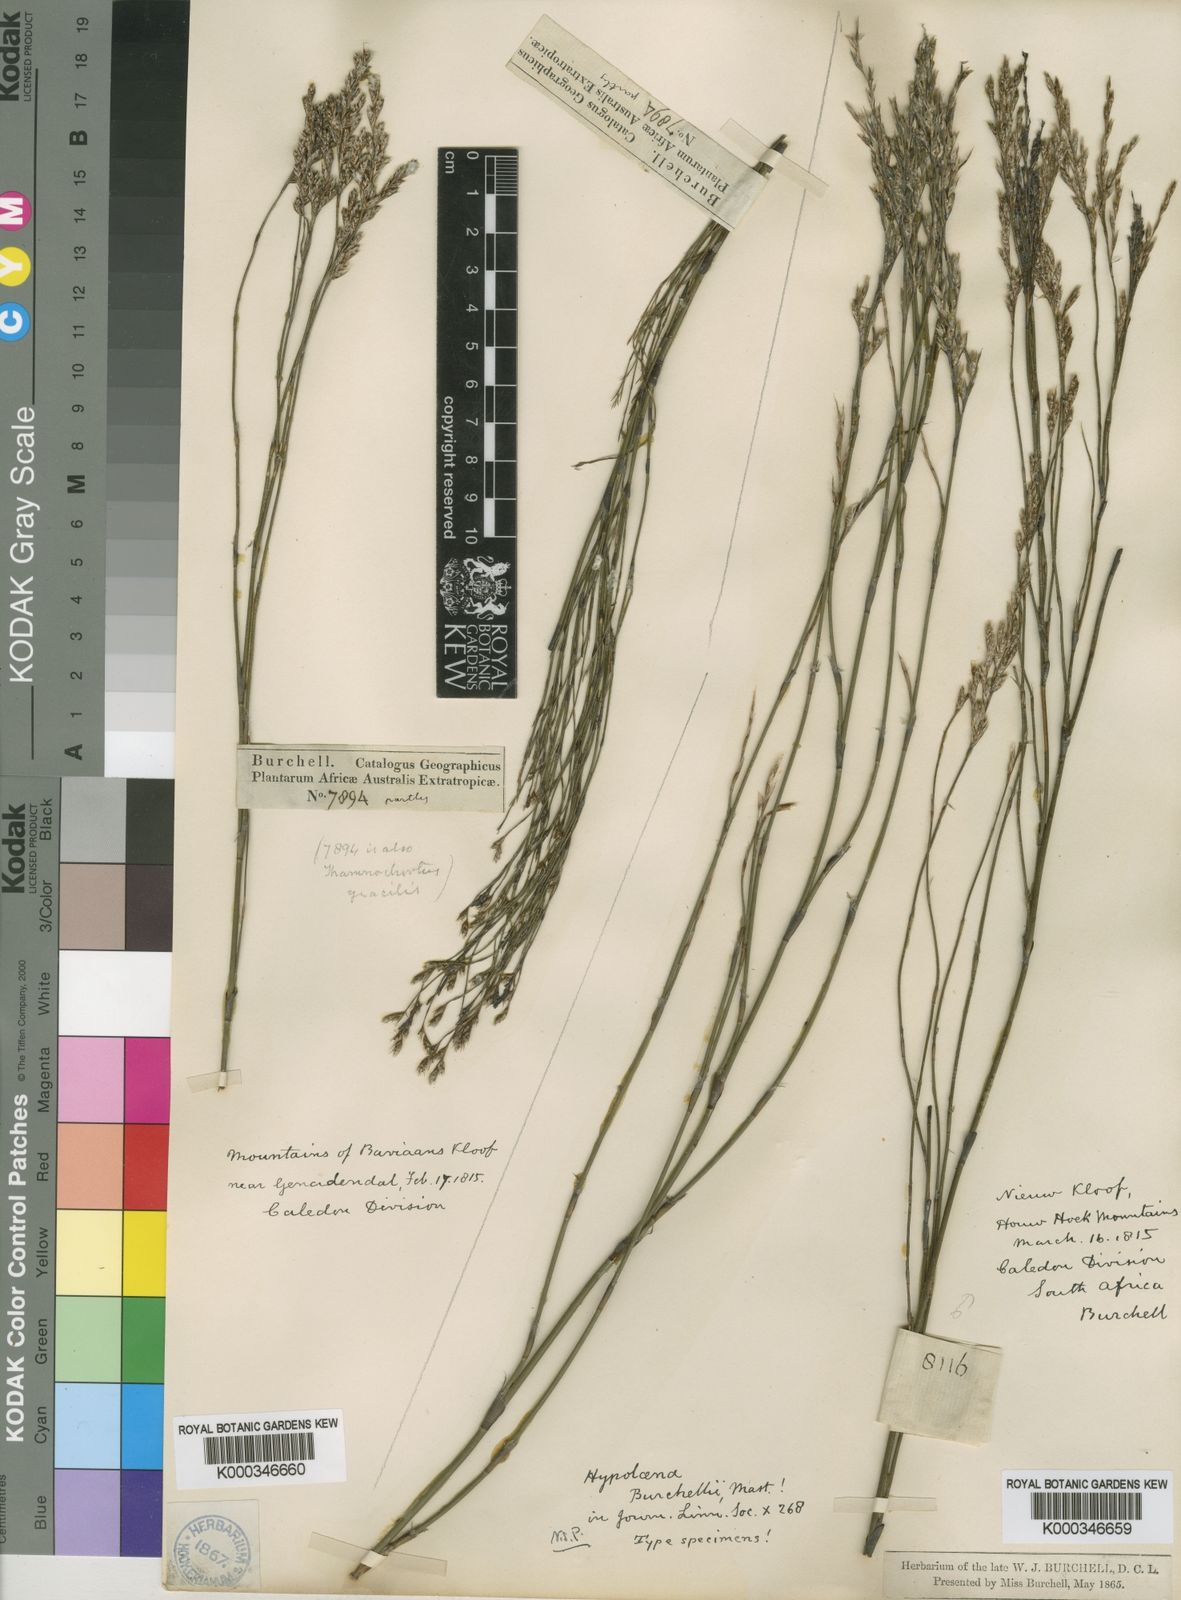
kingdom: Plantae
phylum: Tracheophyta
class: Liliopsida
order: Poales
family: Restionaceae
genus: Restio
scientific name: Restio parvispiculus
